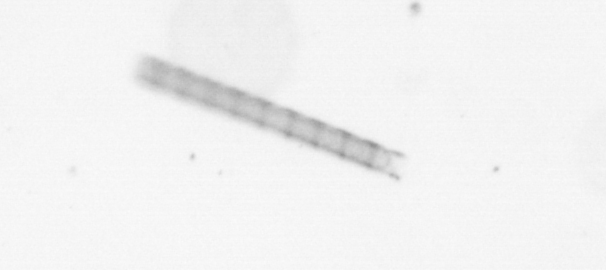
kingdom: Chromista
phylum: Ochrophyta
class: Bacillariophyceae
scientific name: Bacillariophyceae
